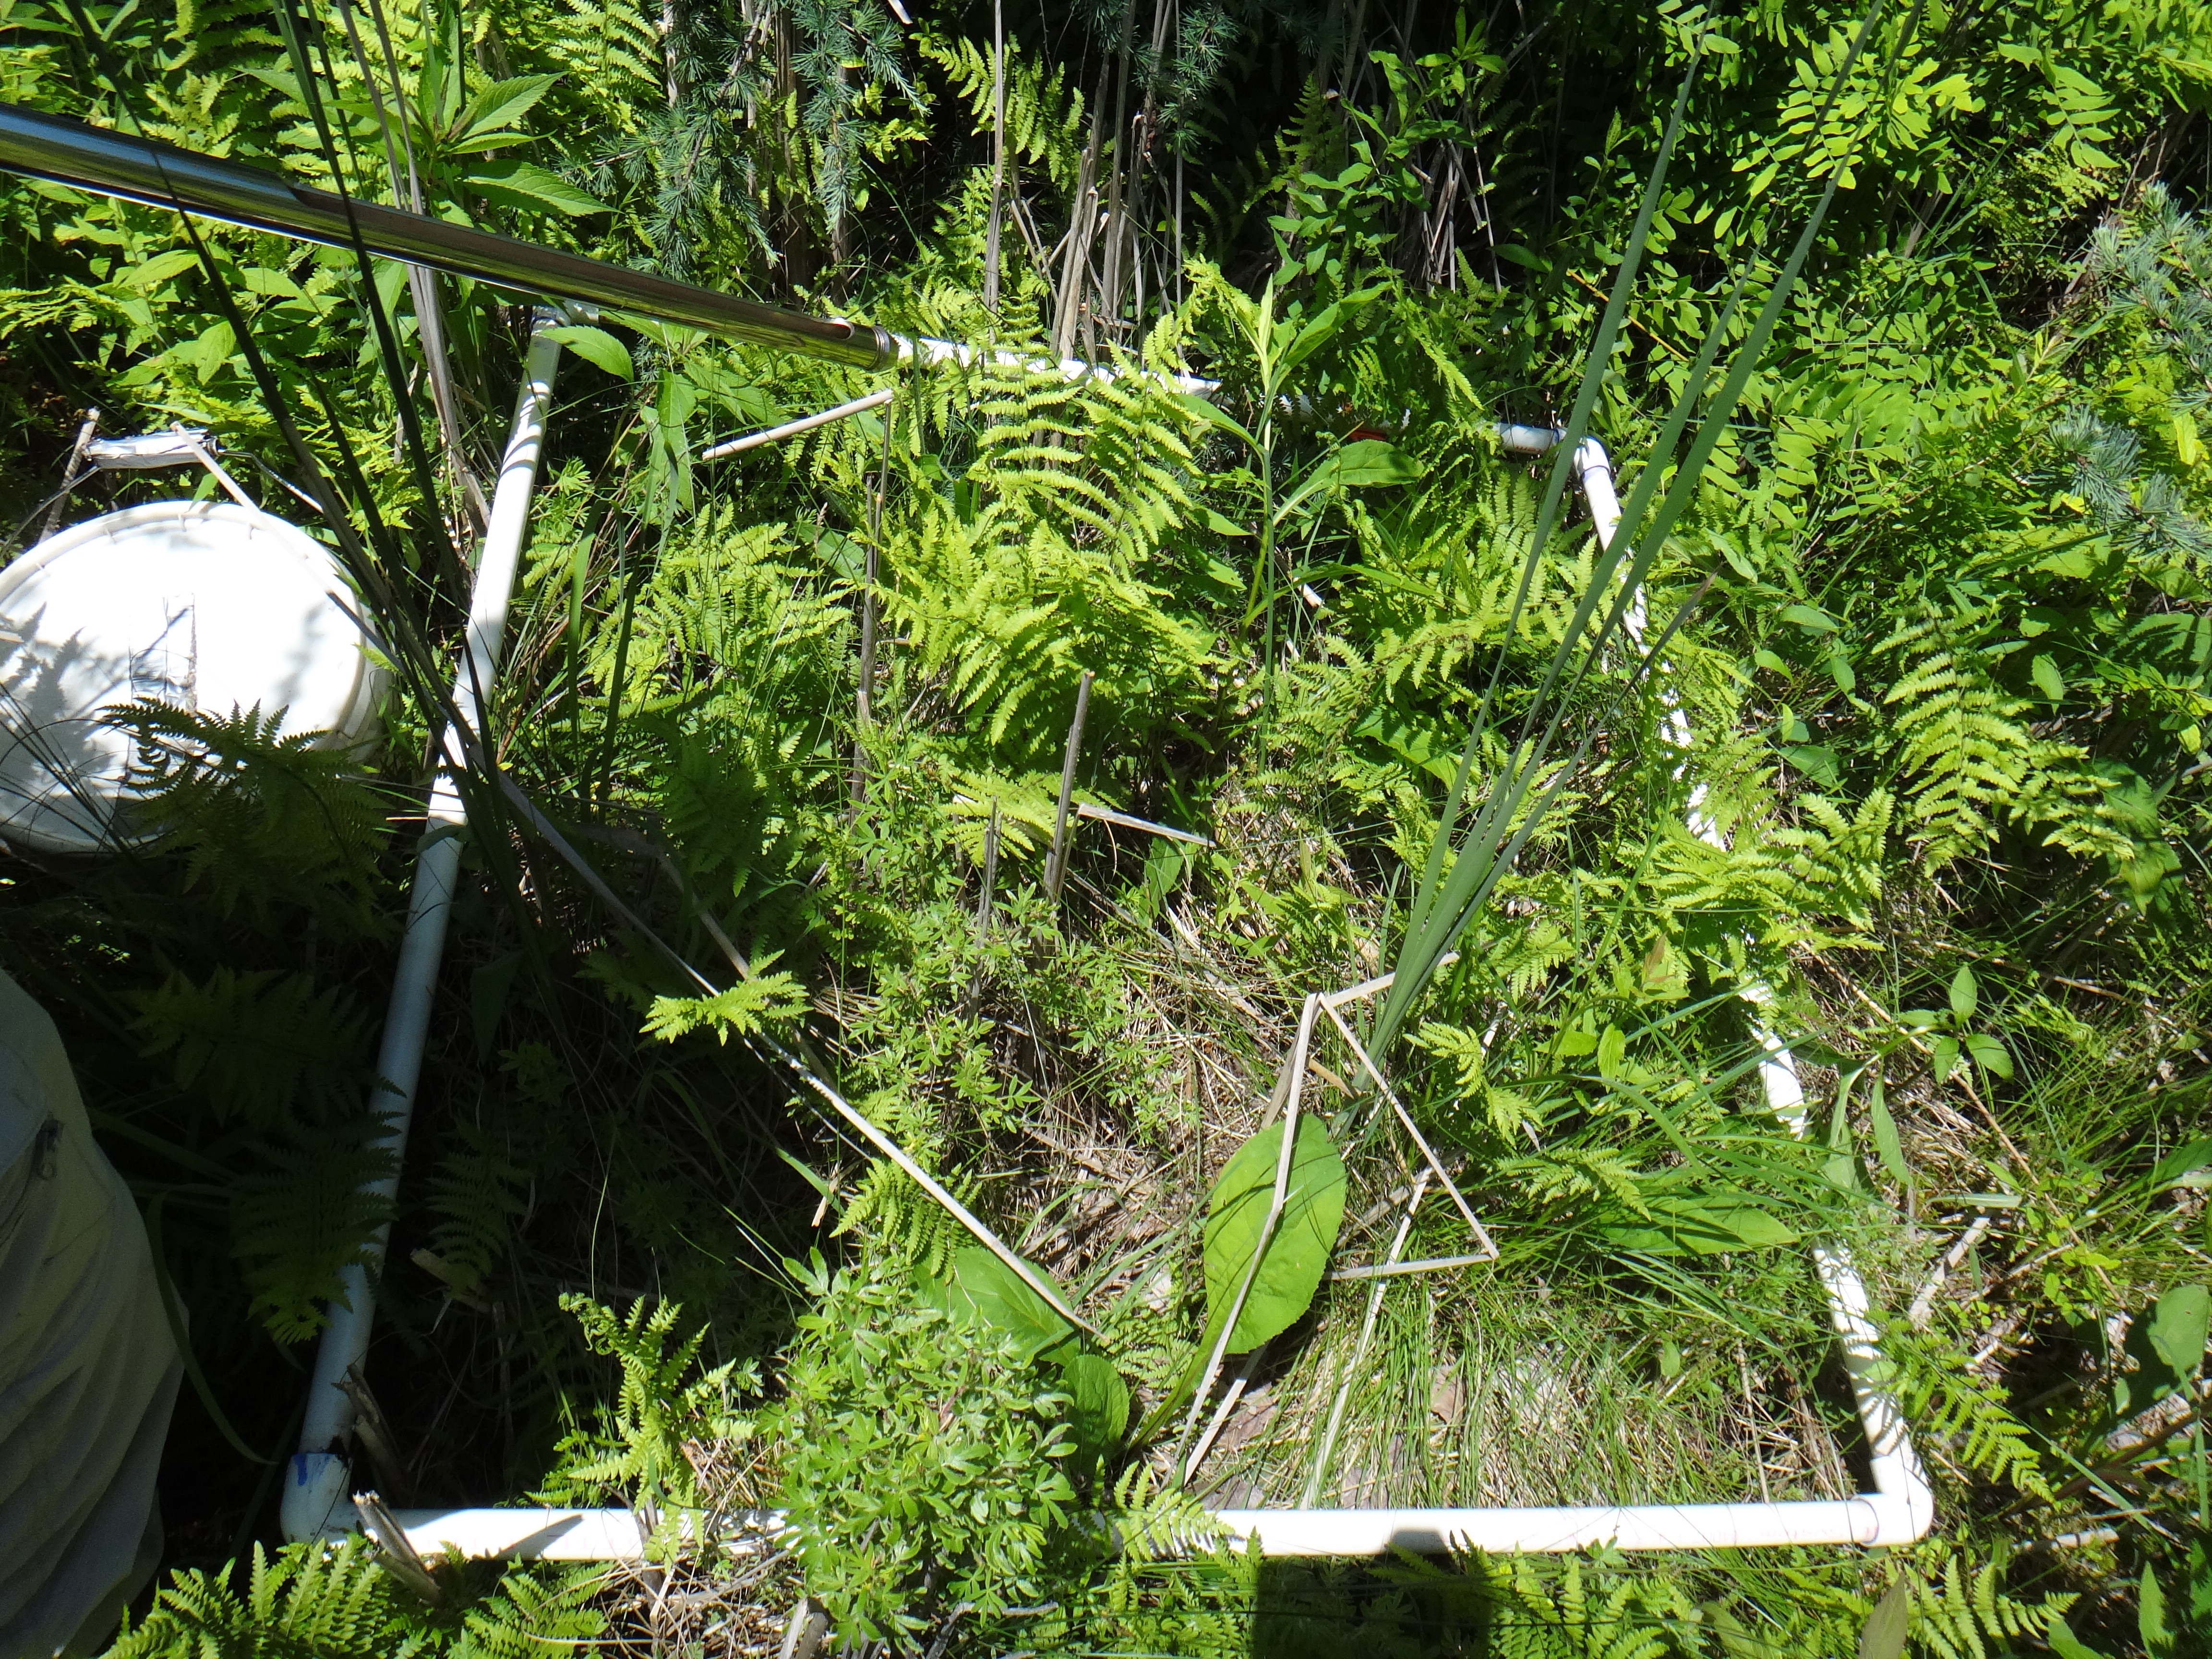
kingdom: Plantae
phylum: Tracheophyta
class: Magnoliopsida
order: Asterales
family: Asteraceae
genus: Solidago
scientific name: Solidago patula
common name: Rough-leaf goldenrod
